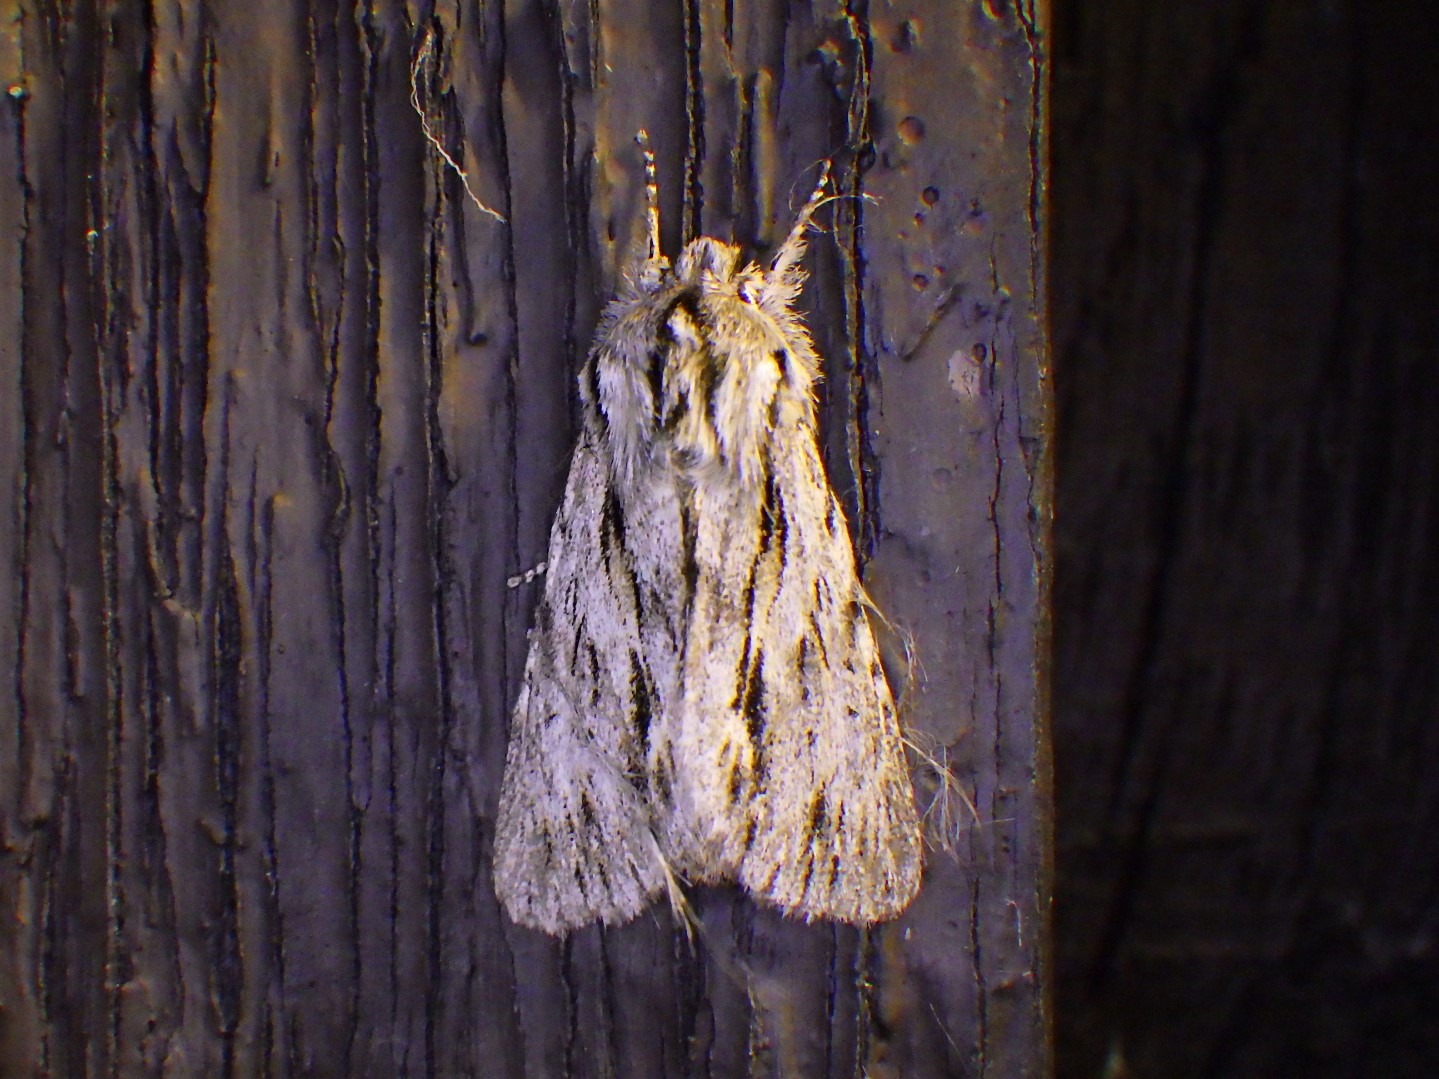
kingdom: Animalia
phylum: Arthropoda
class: Insecta
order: Lepidoptera
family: Noctuidae
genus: Asteroscopus
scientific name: Asteroscopus sphinx
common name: Sfinksugle
